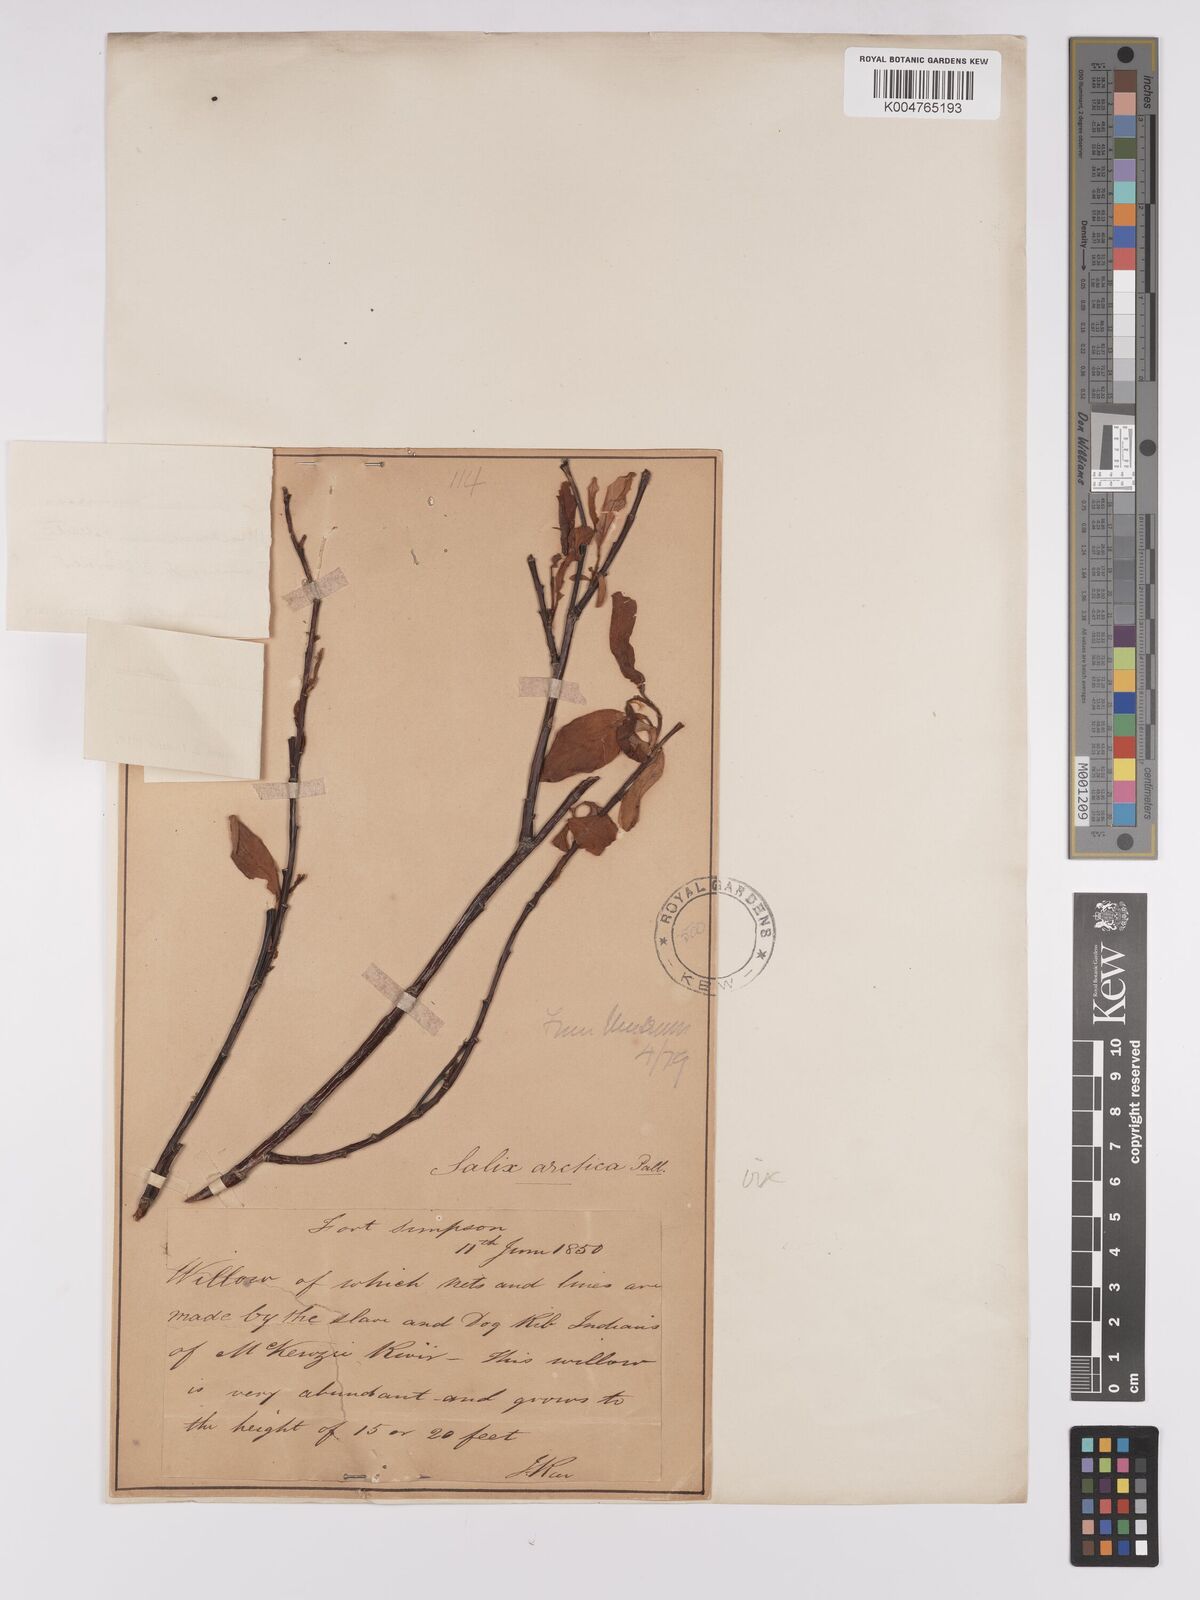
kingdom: Plantae
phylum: Tracheophyta
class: Magnoliopsida
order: Malpighiales
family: Salicaceae
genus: Salix
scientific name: Salix
